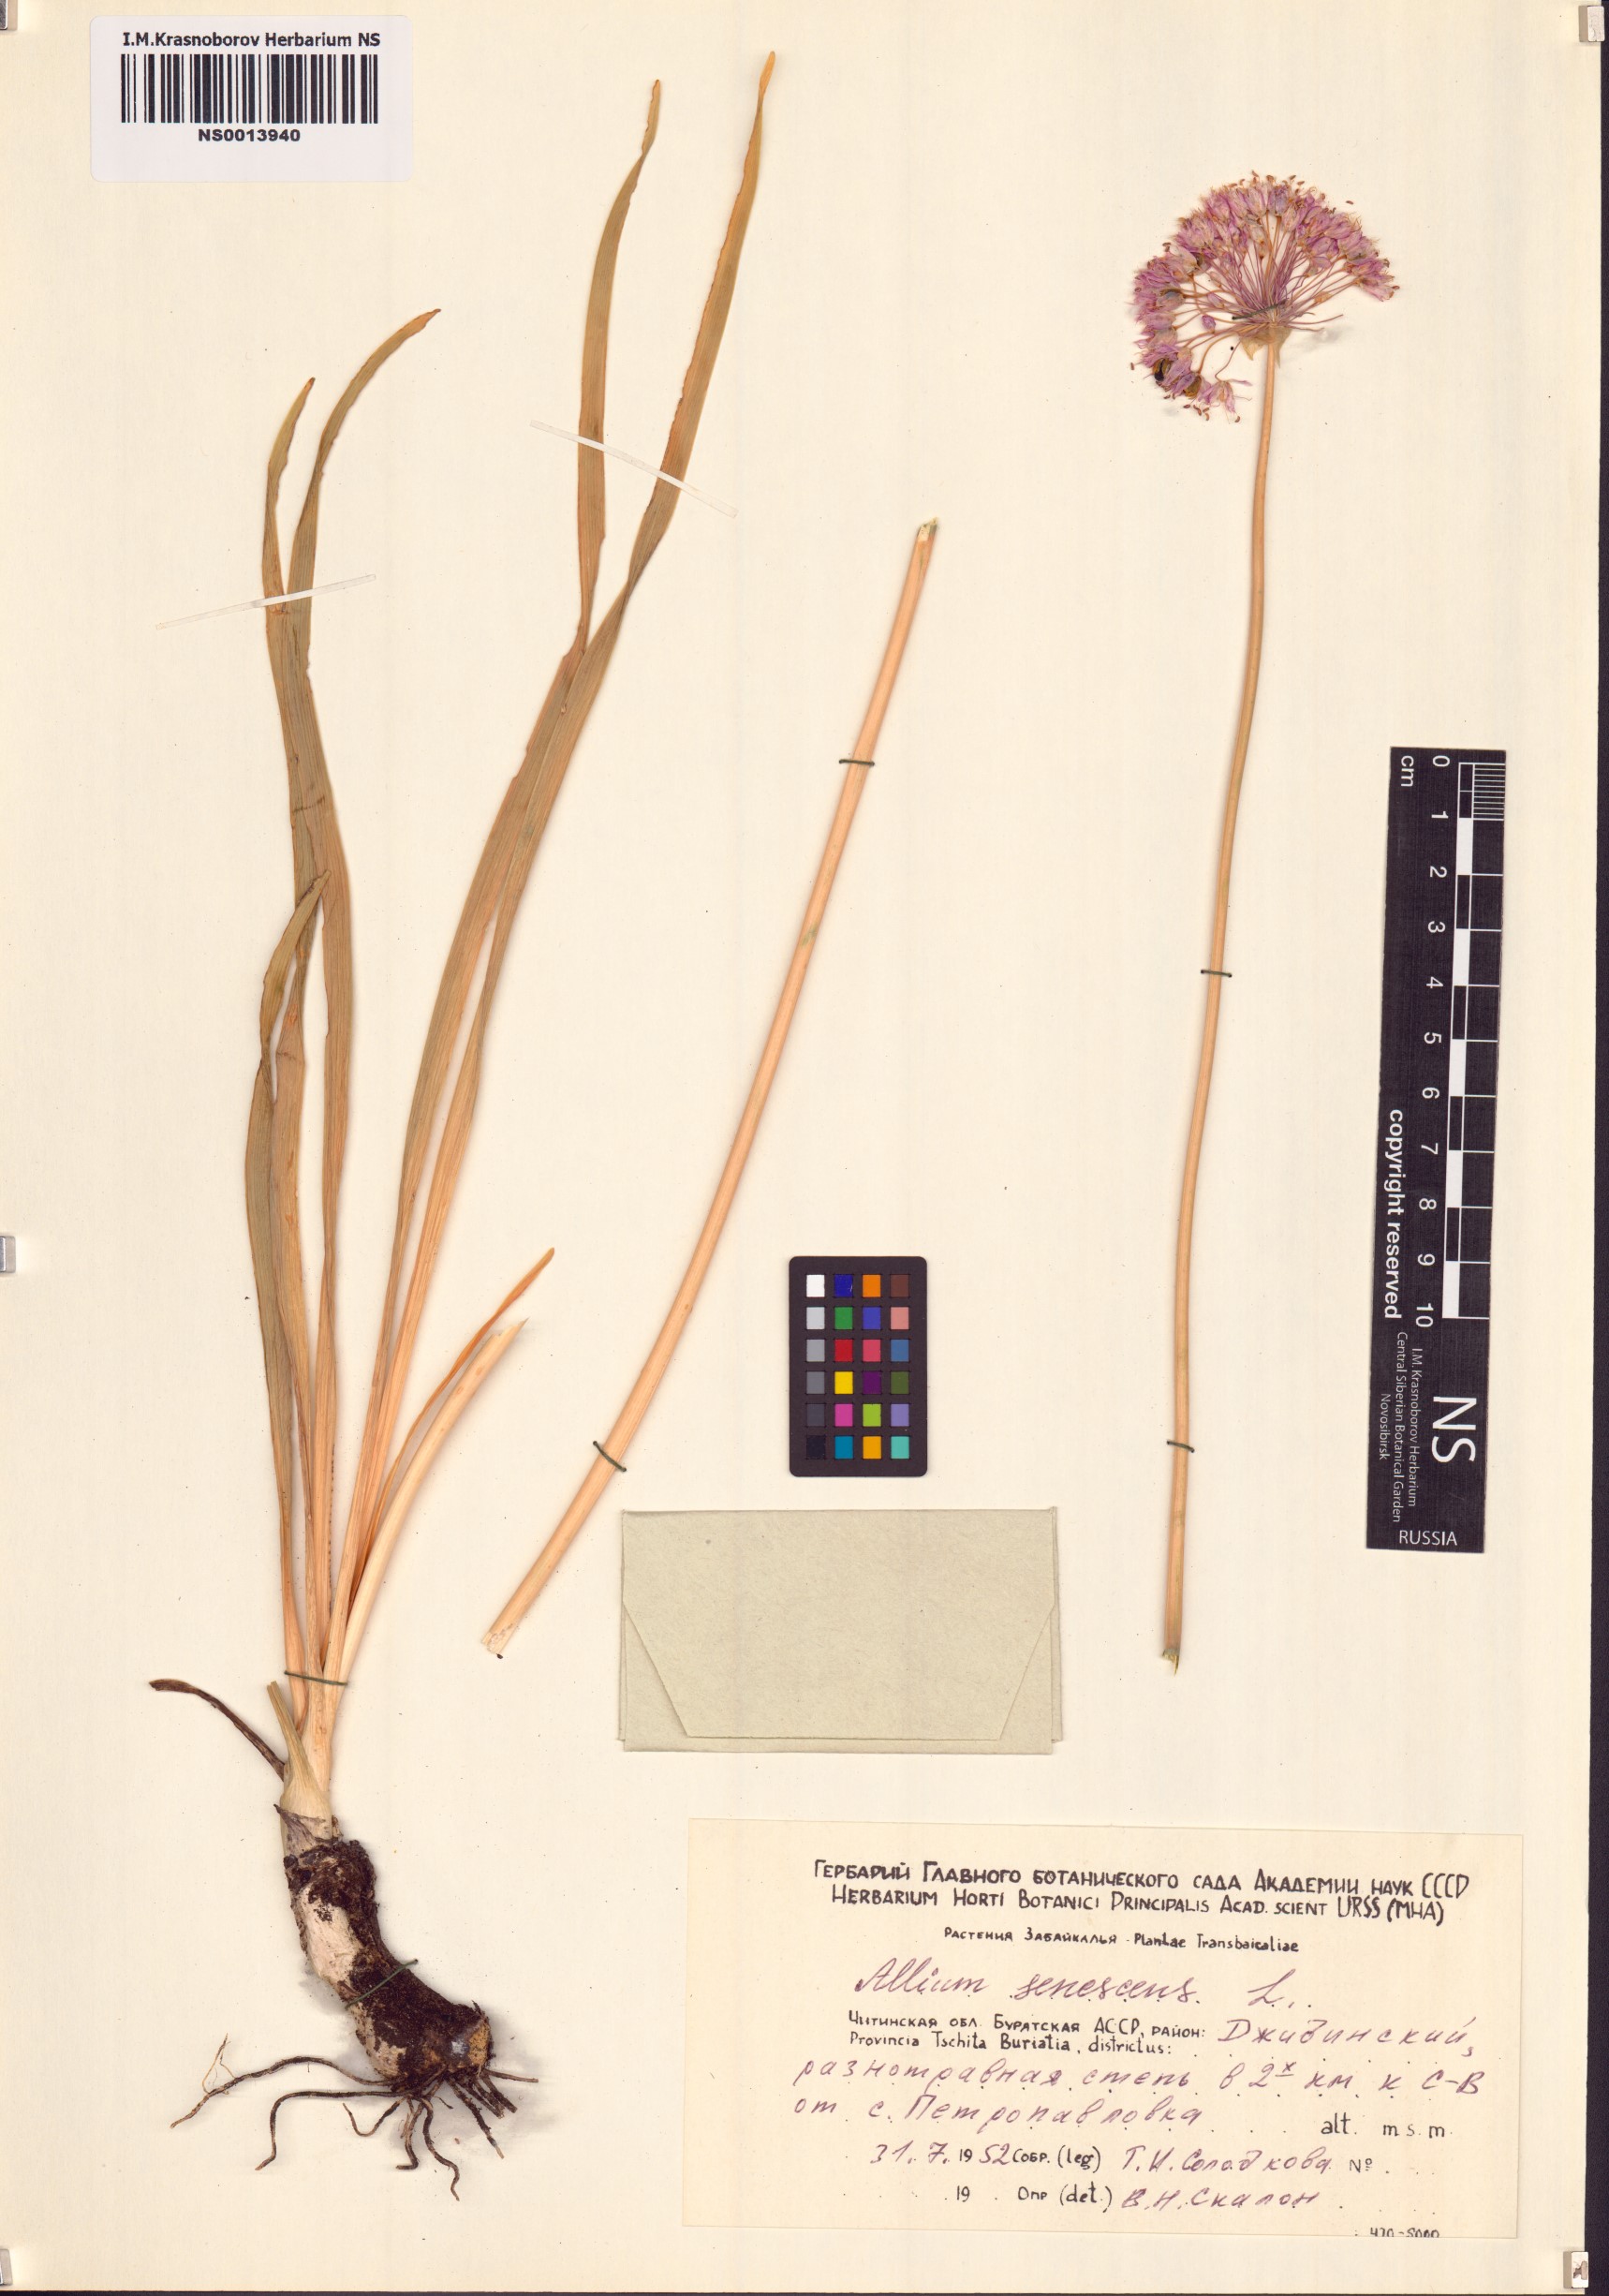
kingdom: Plantae
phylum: Tracheophyta
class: Liliopsida
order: Asparagales
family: Amaryllidaceae
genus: Allium
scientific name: Allium senescens
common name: German garlic
